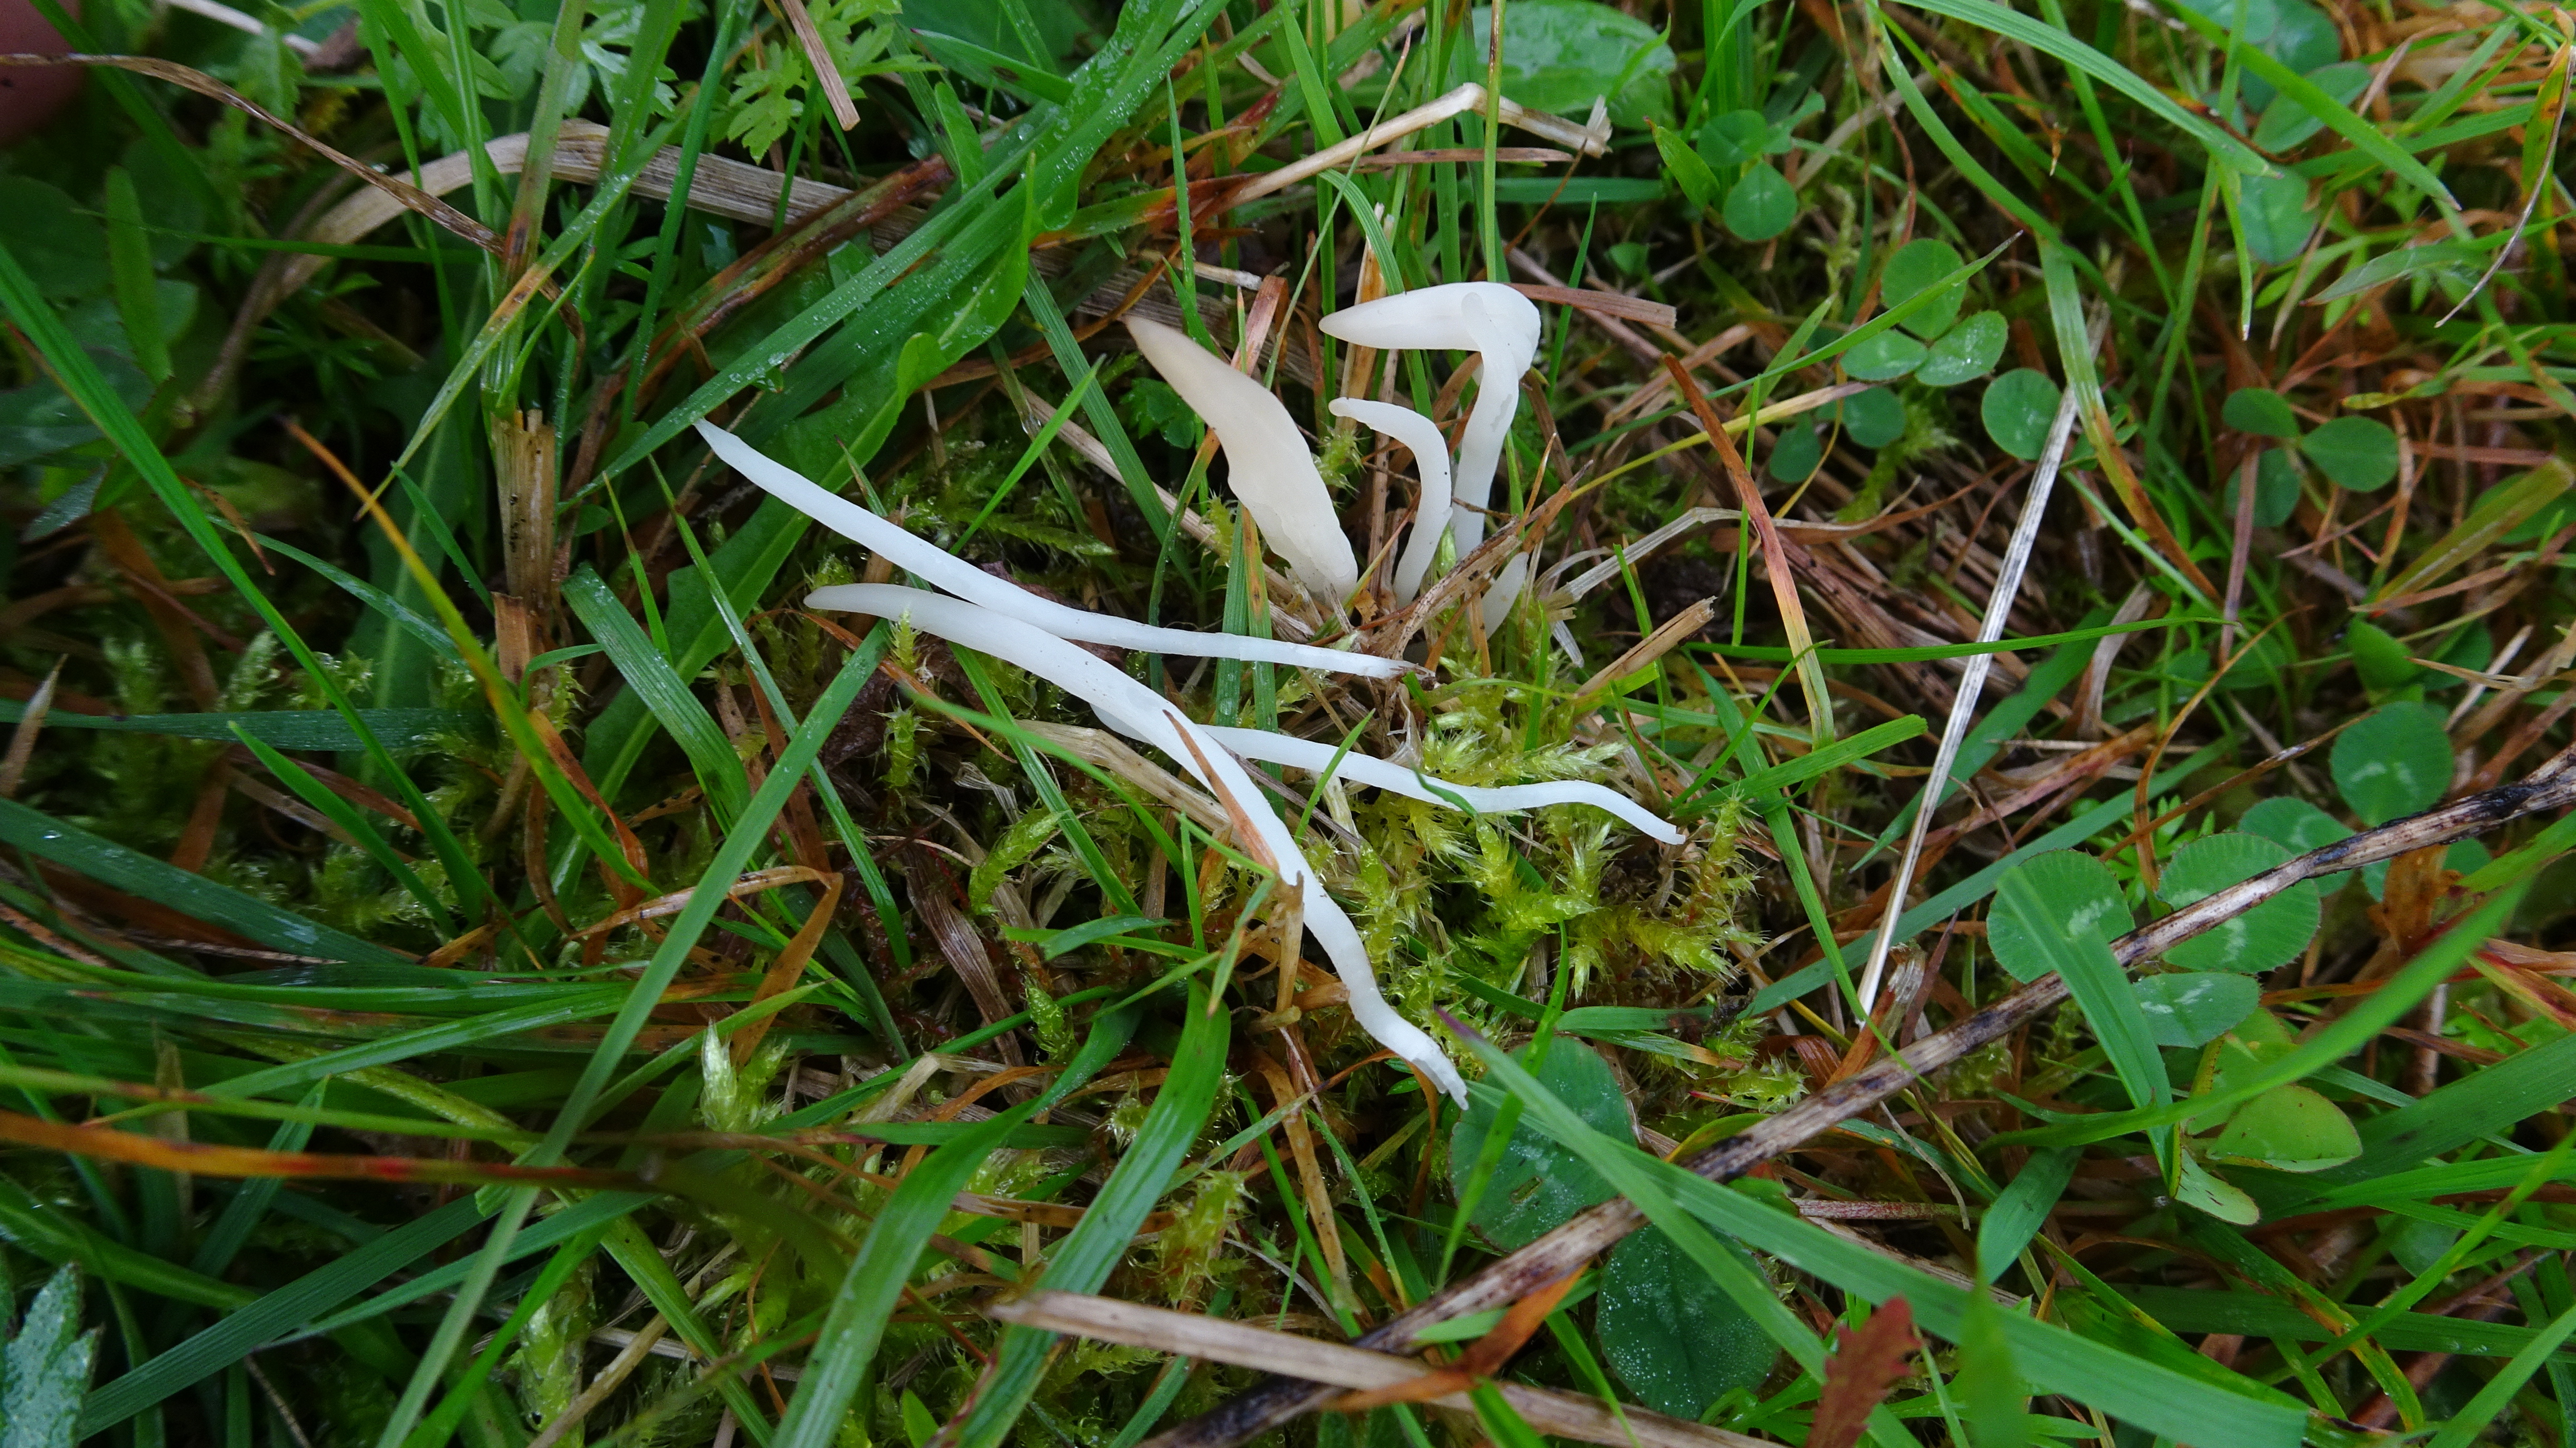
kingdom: Fungi
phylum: Basidiomycota
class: Agaricomycetes
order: Agaricales
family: Clavariaceae
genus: Clavaria
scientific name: Clavaria fragilis
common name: White spindles
